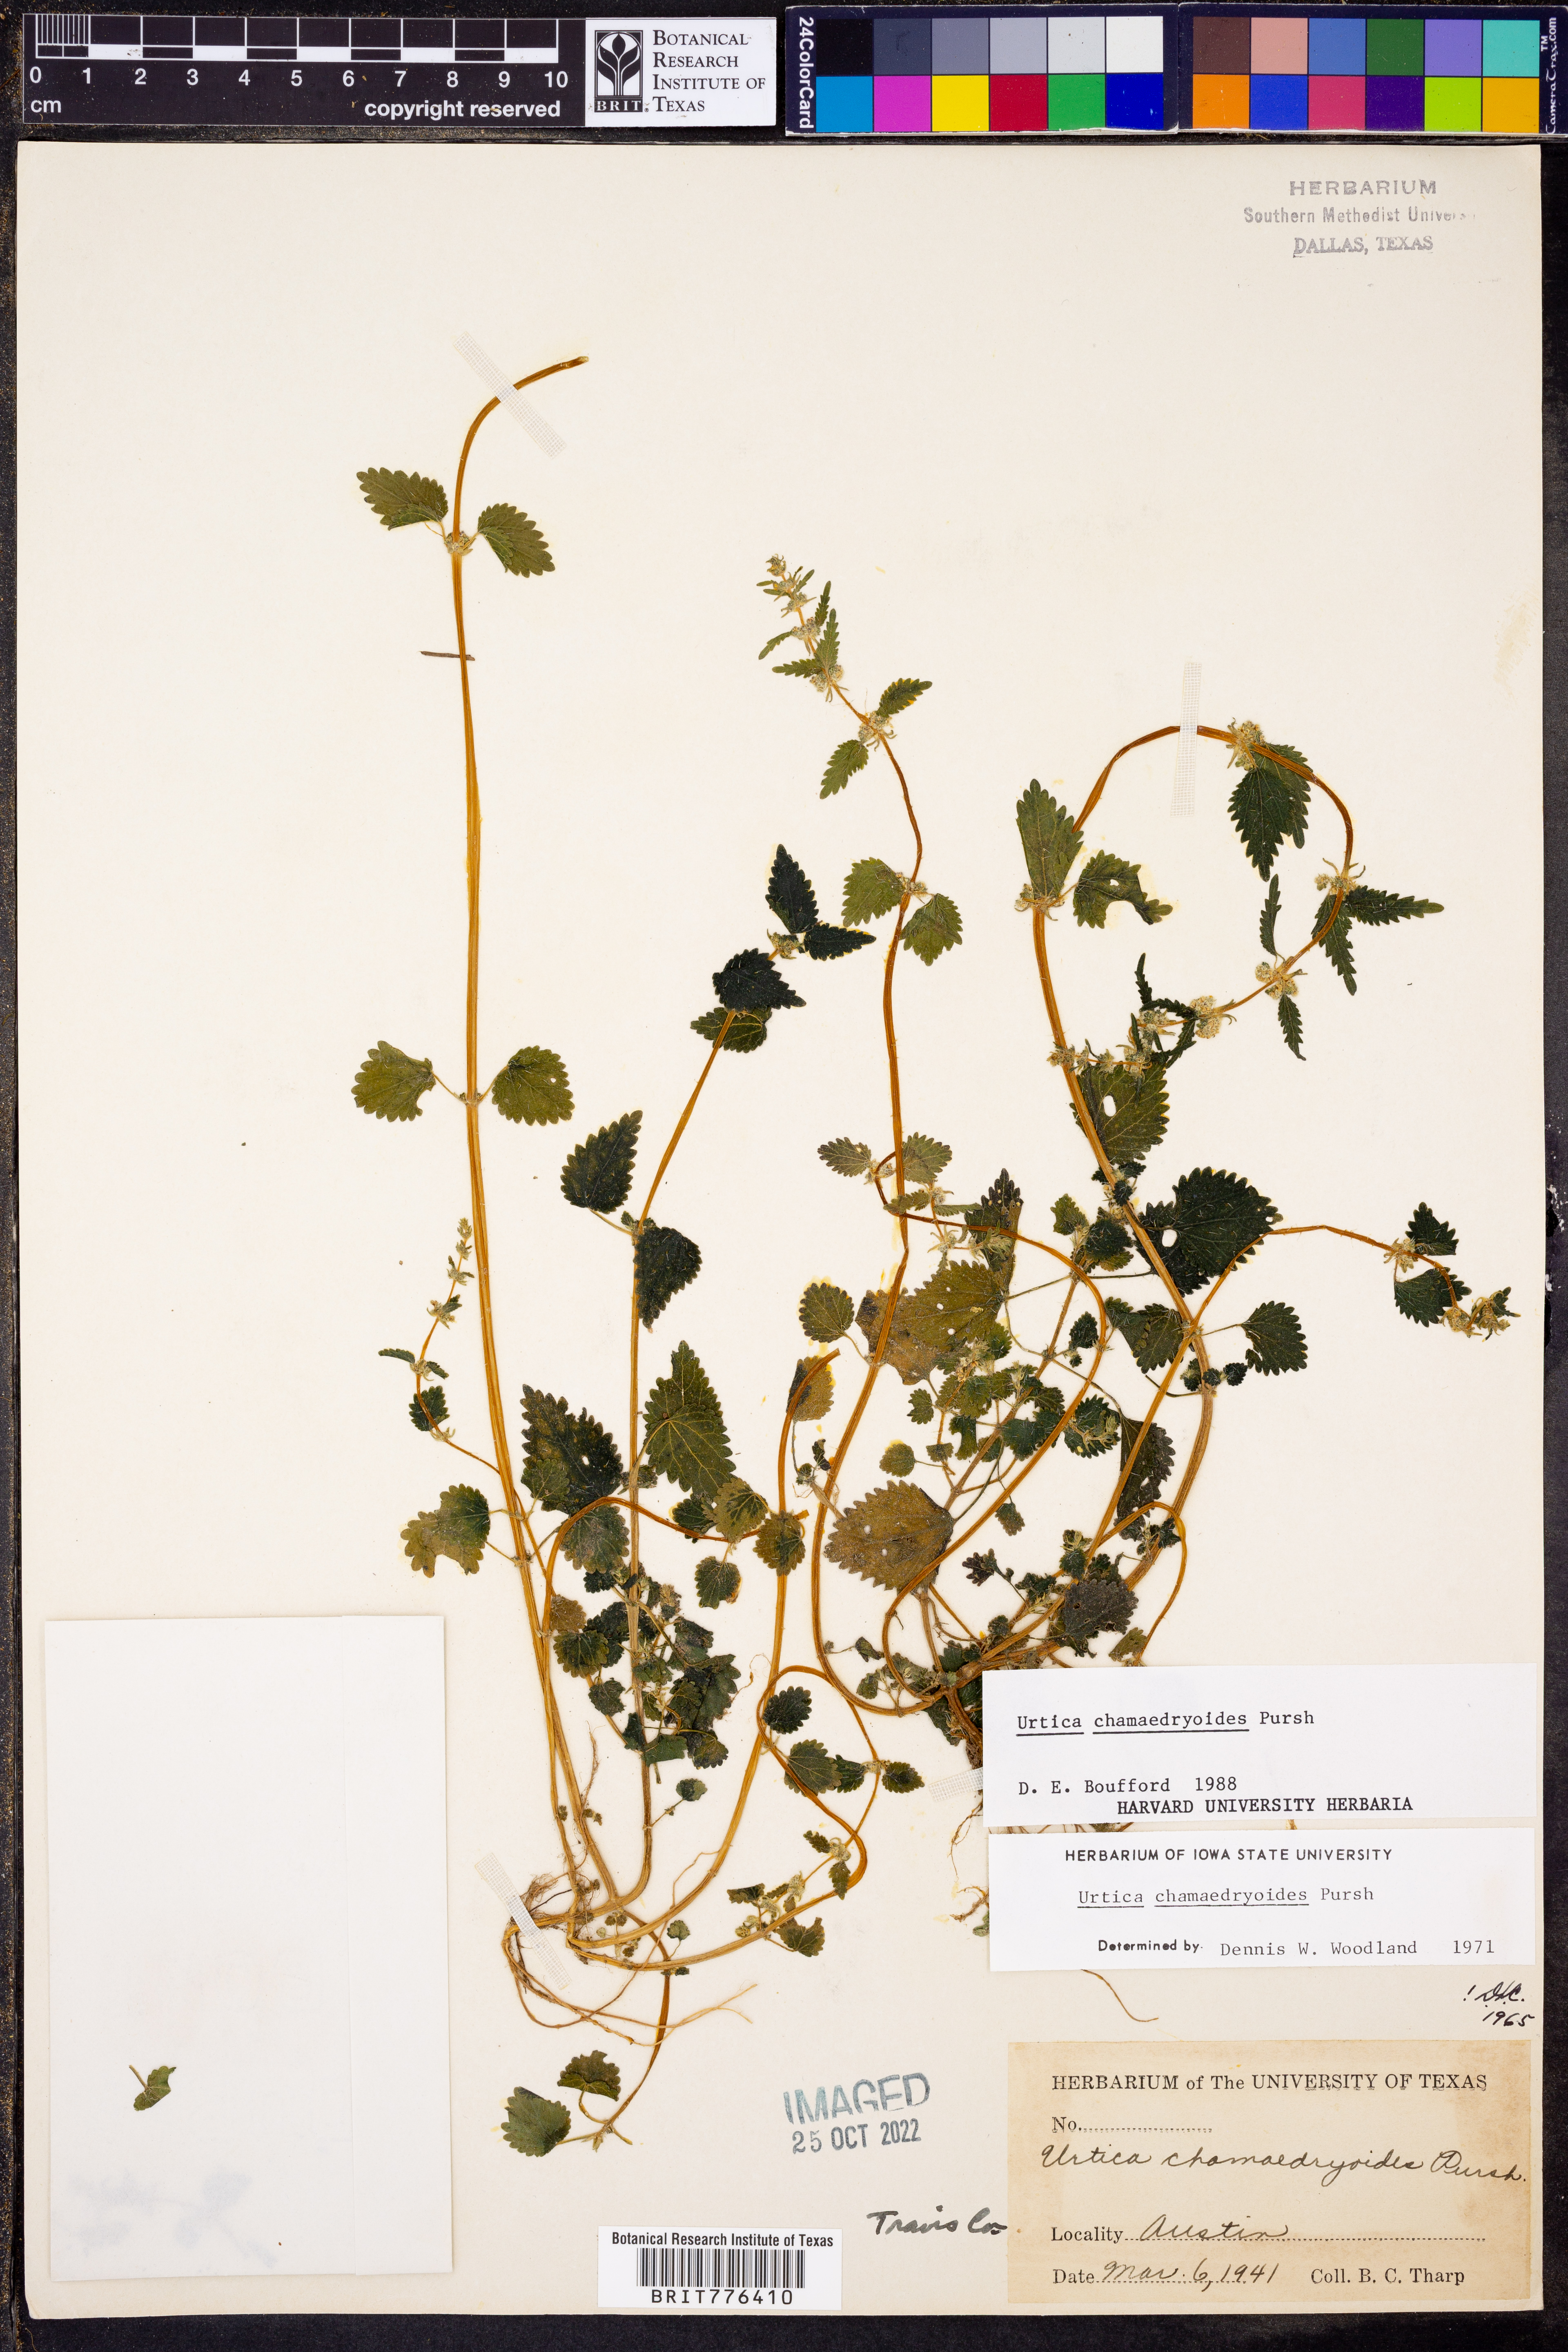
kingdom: Plantae
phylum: Tracheophyta
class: Magnoliopsida
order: Rosales
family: Urticaceae
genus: Urtica
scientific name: Urtica chamaedryoides
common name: Heart-leaf nettle
